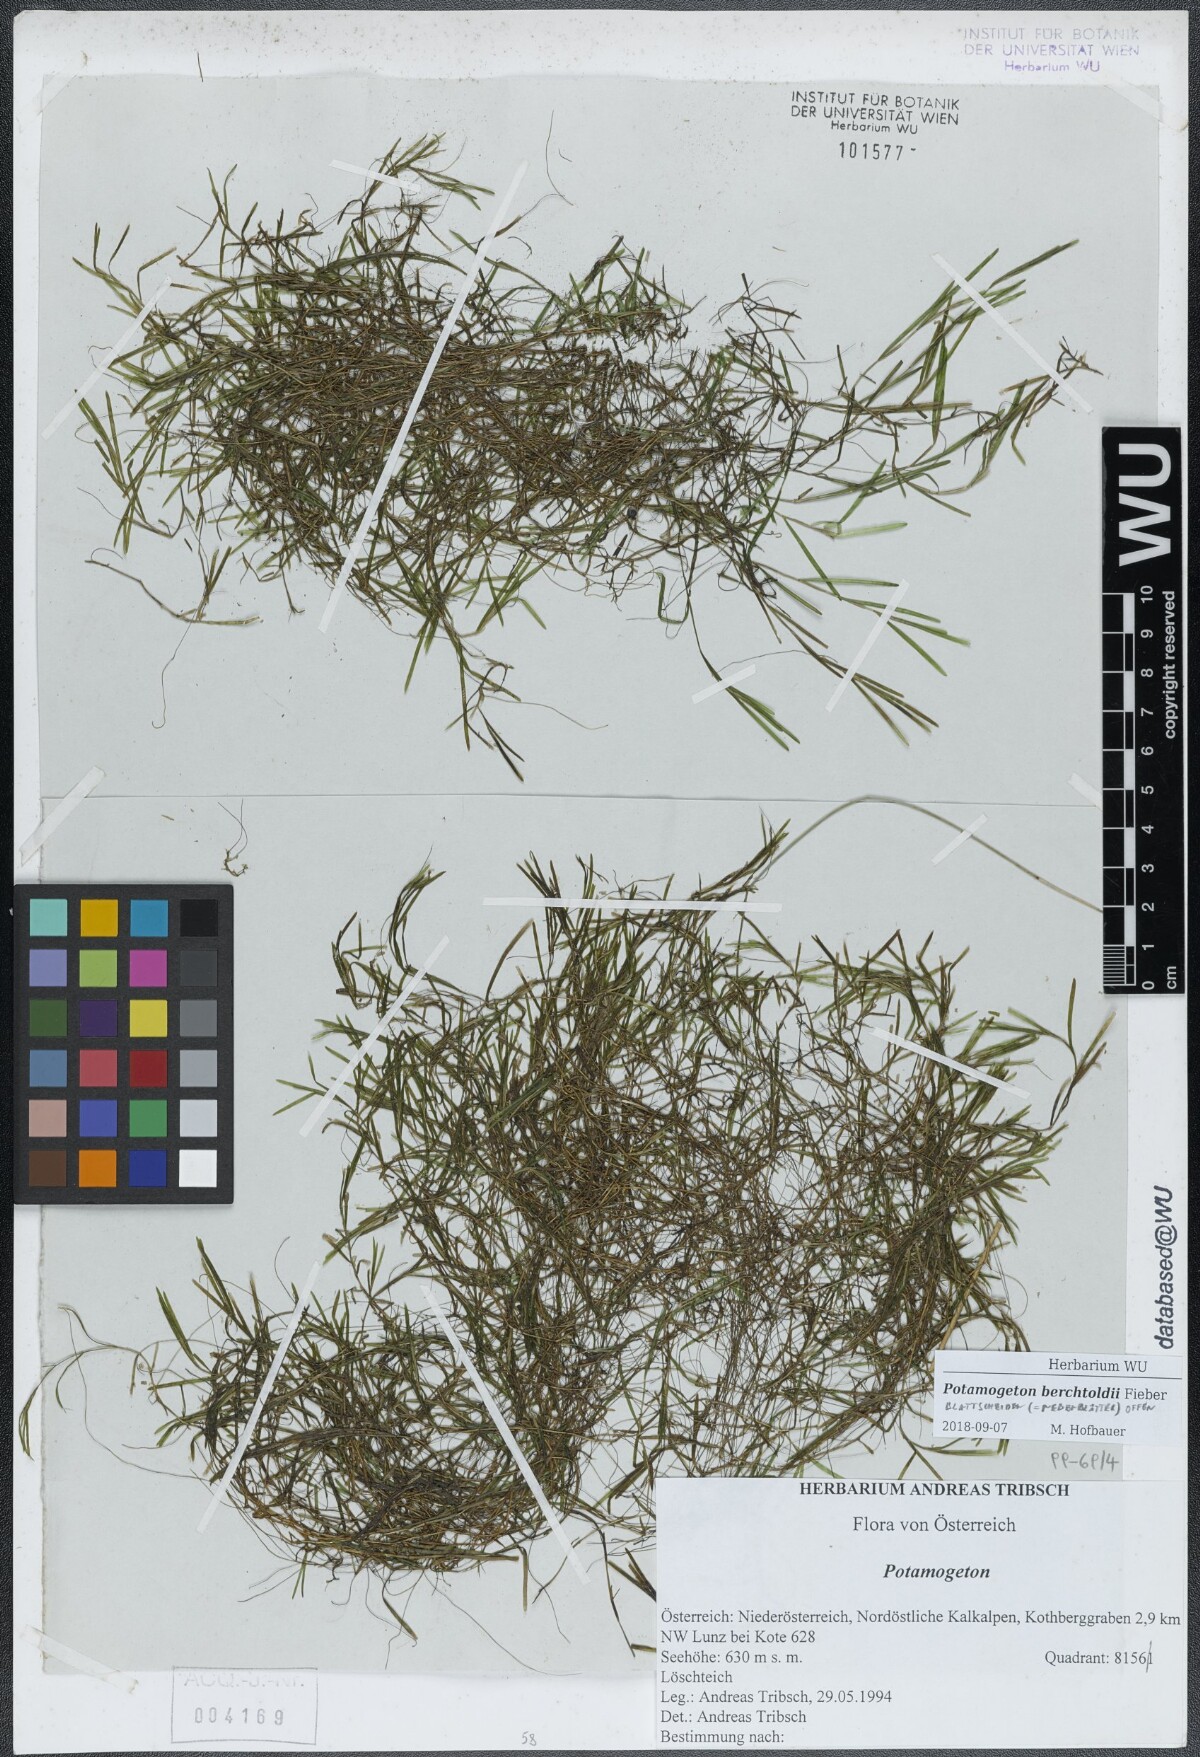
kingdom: Plantae
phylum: Tracheophyta
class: Liliopsida
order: Alismatales
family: Potamogetonaceae
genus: Potamogeton
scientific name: Potamogeton berchtoldii
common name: Small pondweed
